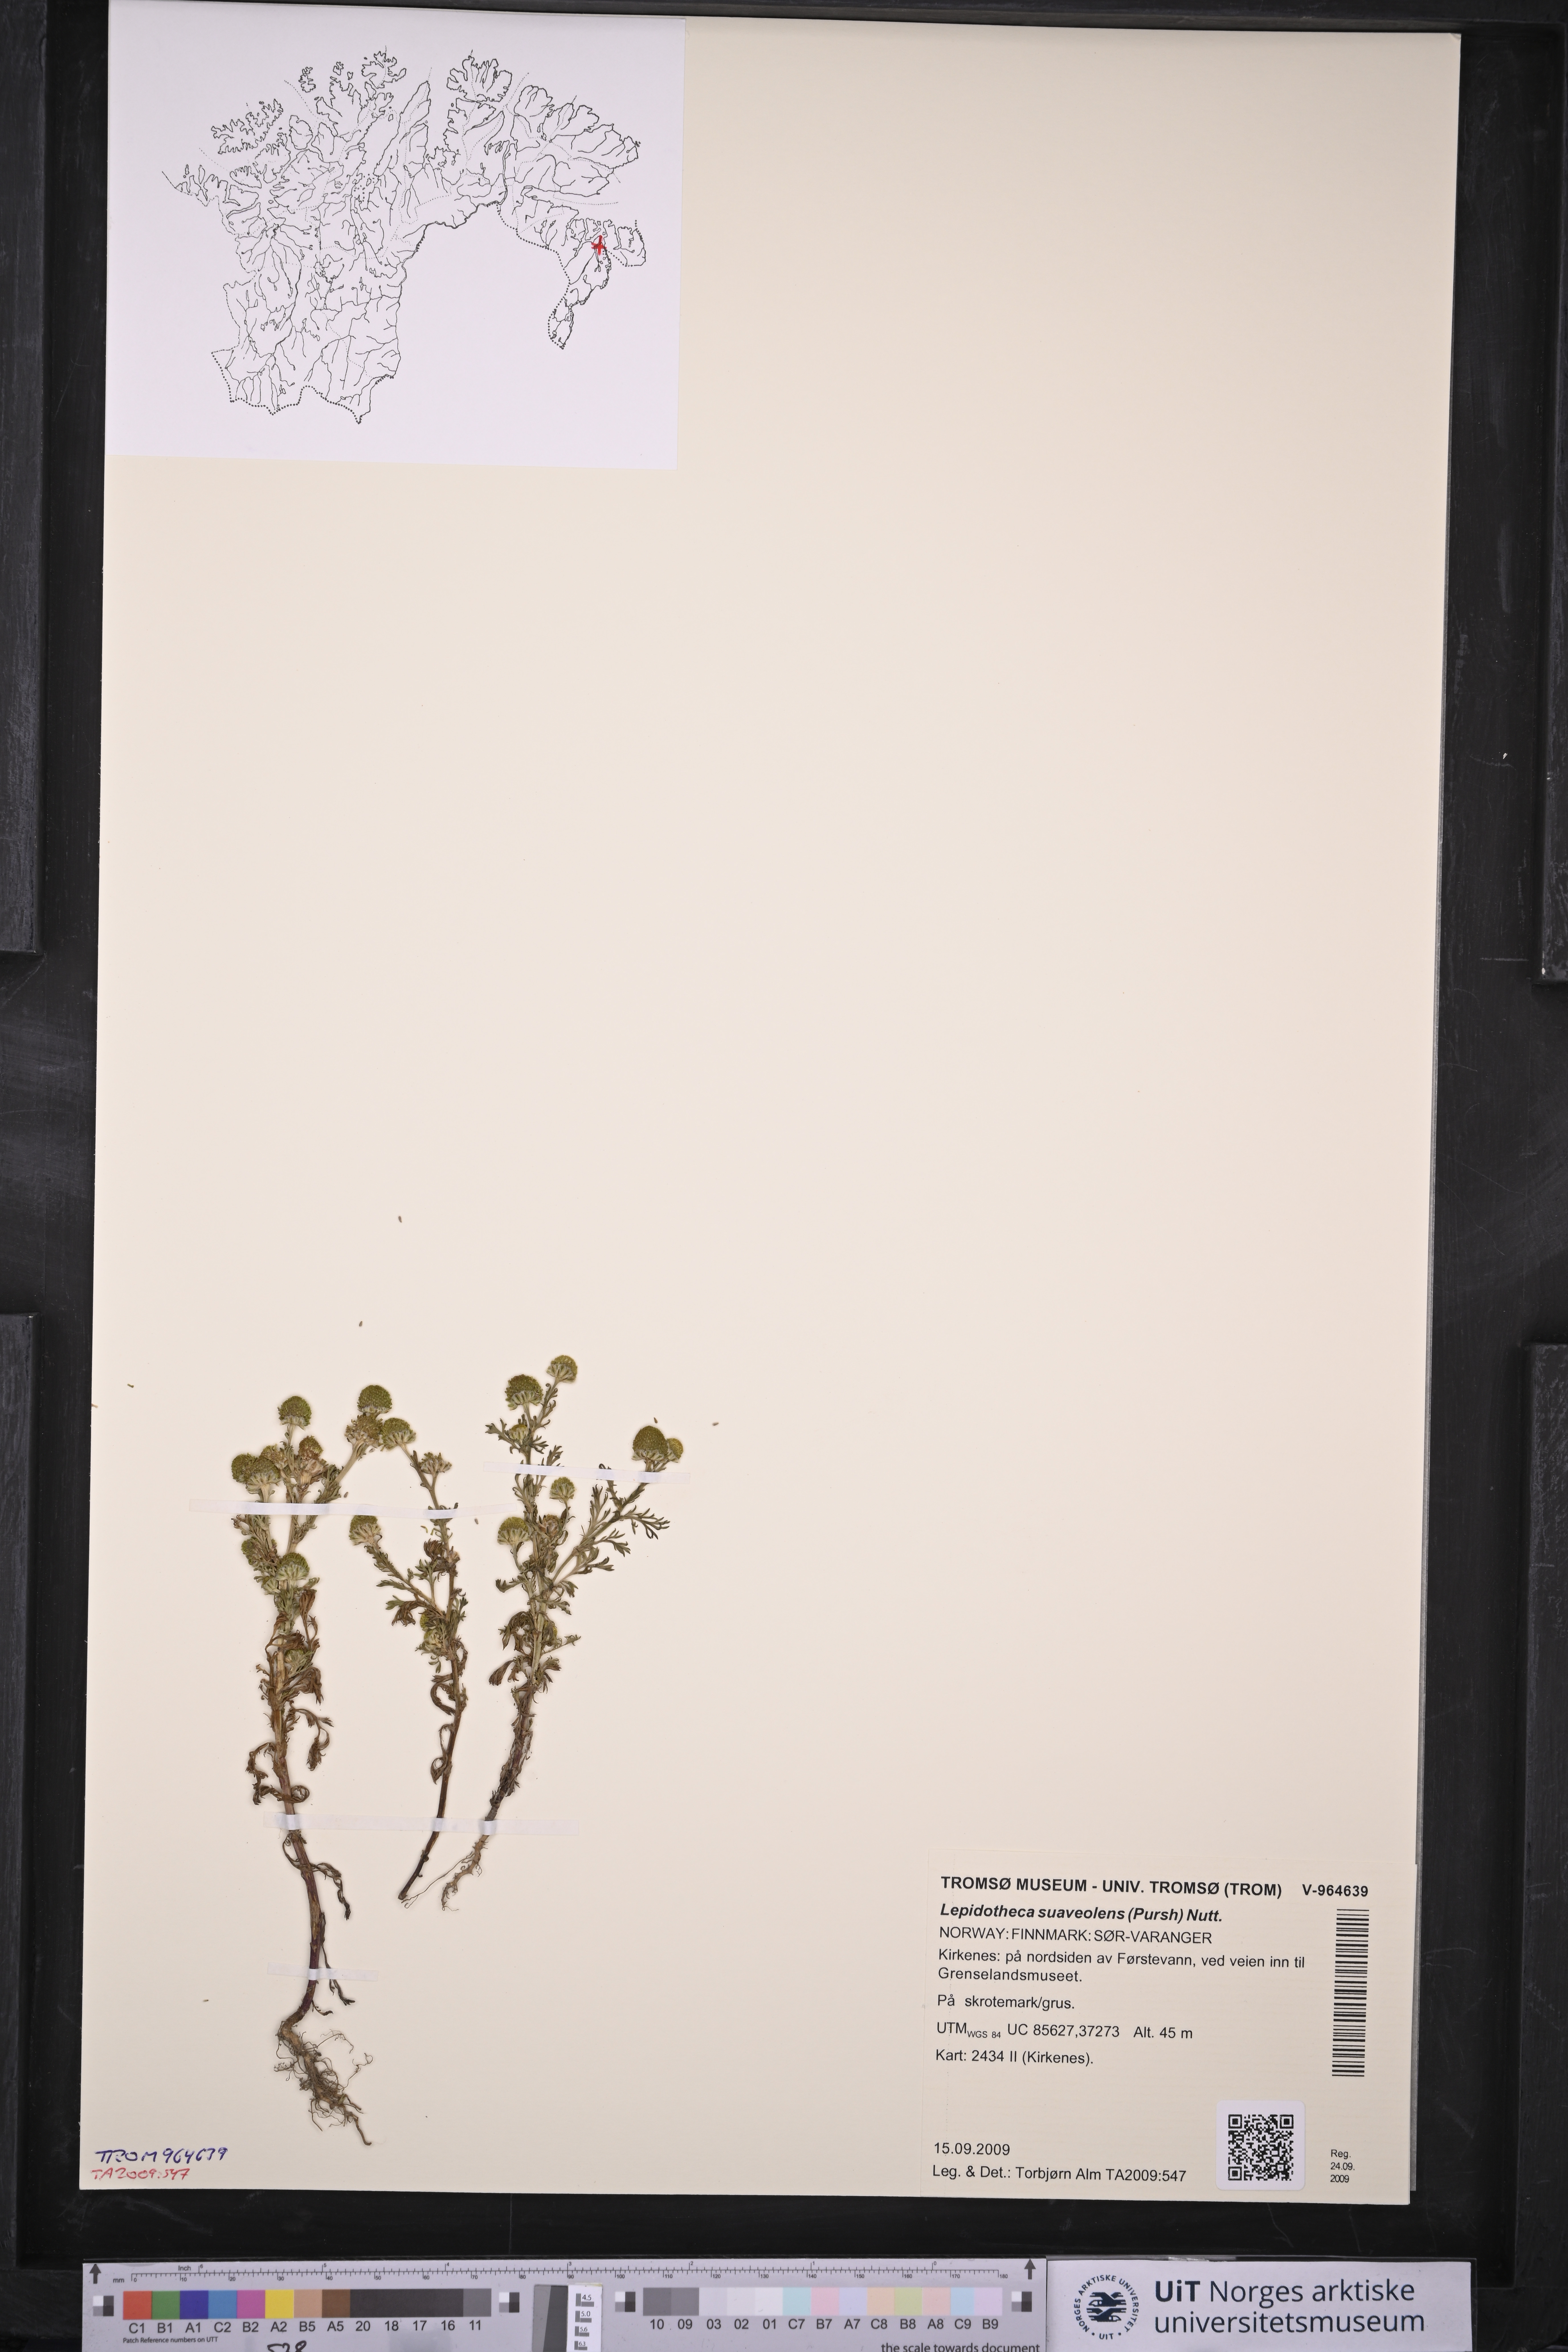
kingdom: Plantae
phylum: Tracheophyta
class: Magnoliopsida
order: Asterales
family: Asteraceae
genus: Matricaria
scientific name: Matricaria discoidea
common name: Disc mayweed
